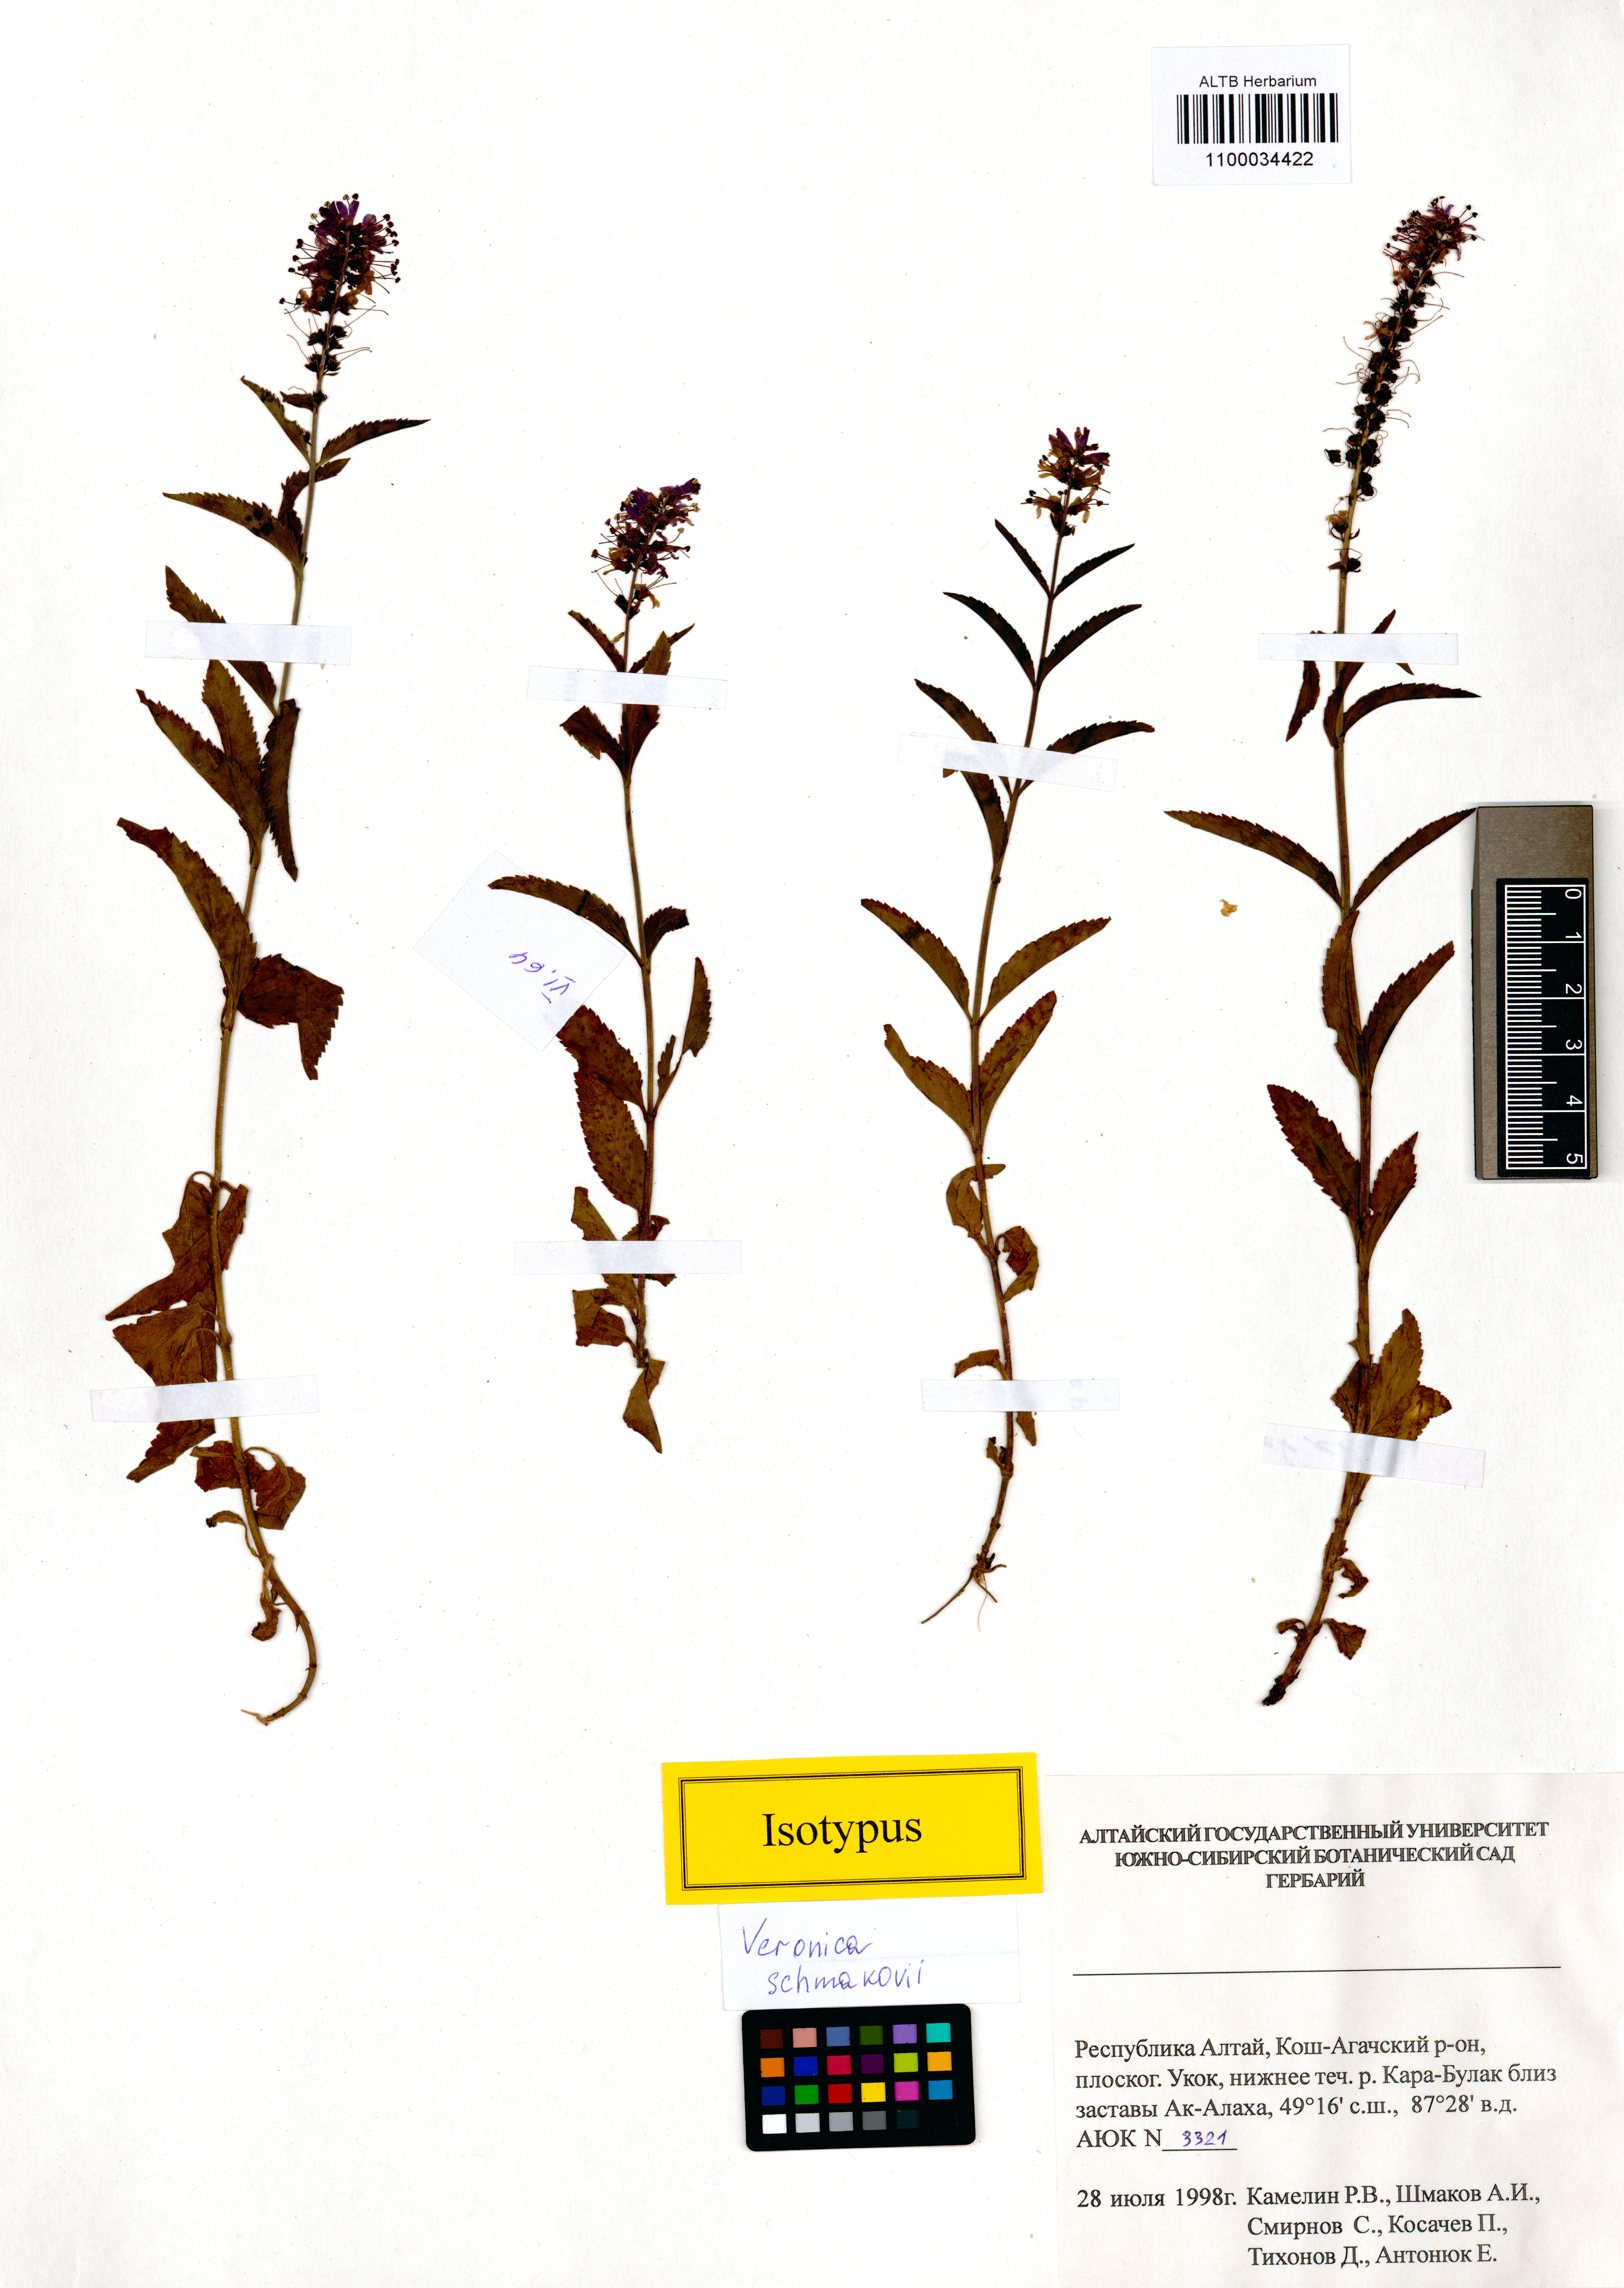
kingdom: Plantae
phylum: Tracheophyta
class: Magnoliopsida
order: Lamiales
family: Plantaginaceae
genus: Veronica
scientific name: Veronica schmakovii
